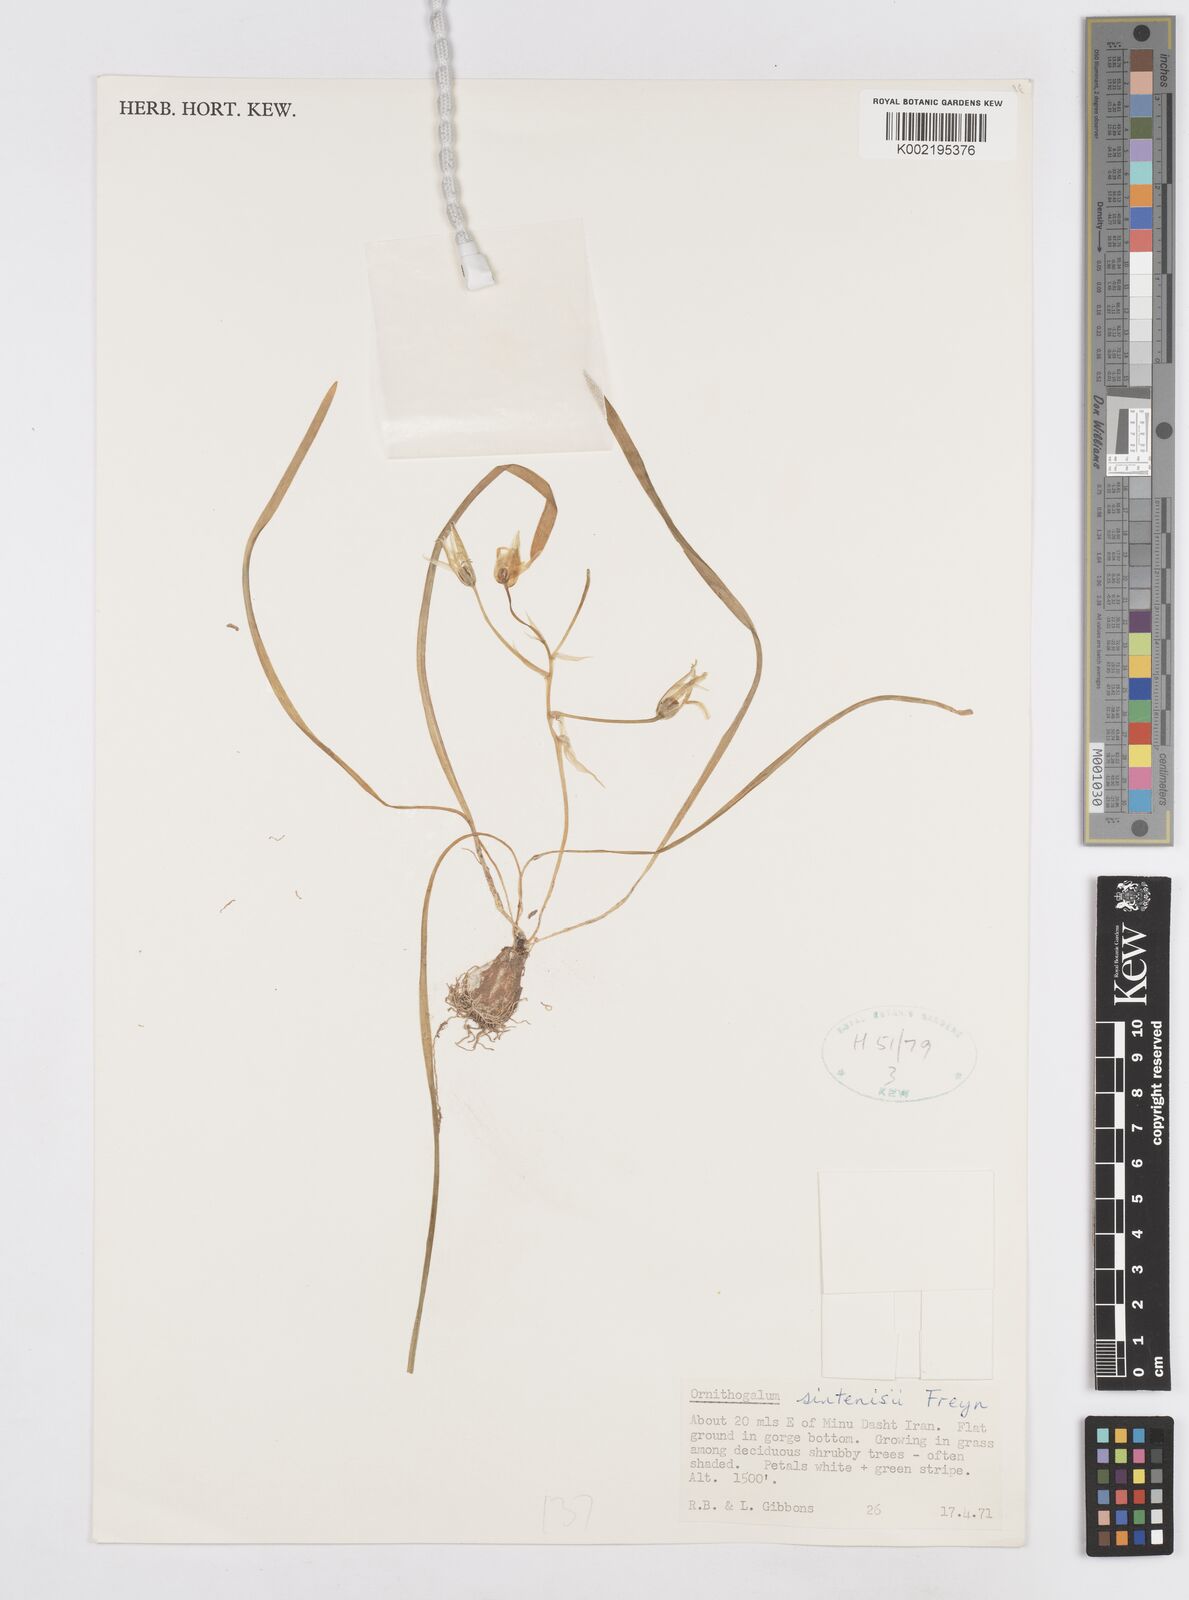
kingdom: Plantae
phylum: Tracheophyta
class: Liliopsida
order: Asparagales
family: Asparagaceae
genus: Ornithogalum
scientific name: Ornithogalum sintenisii
